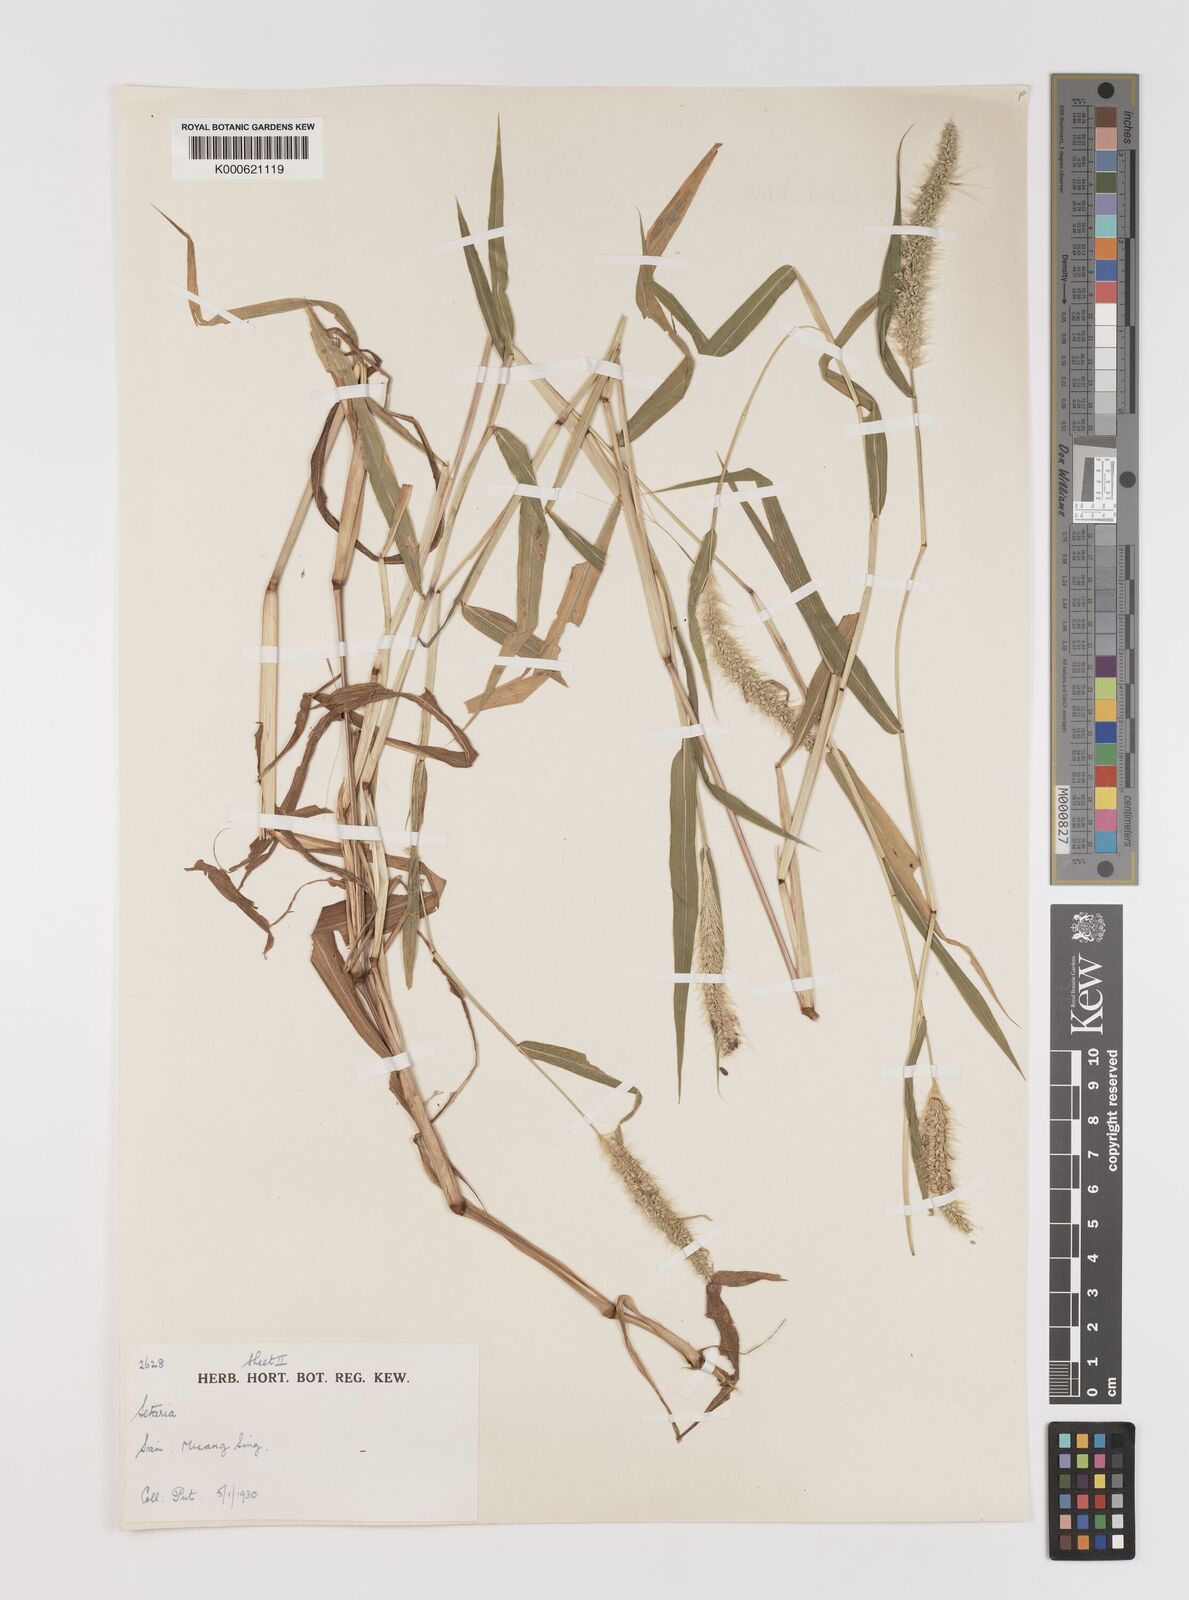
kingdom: Plantae
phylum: Tracheophyta
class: Liliopsida
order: Poales
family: Poaceae
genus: Setaria
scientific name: Setaria verticillata
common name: Hooked bristlegrass
